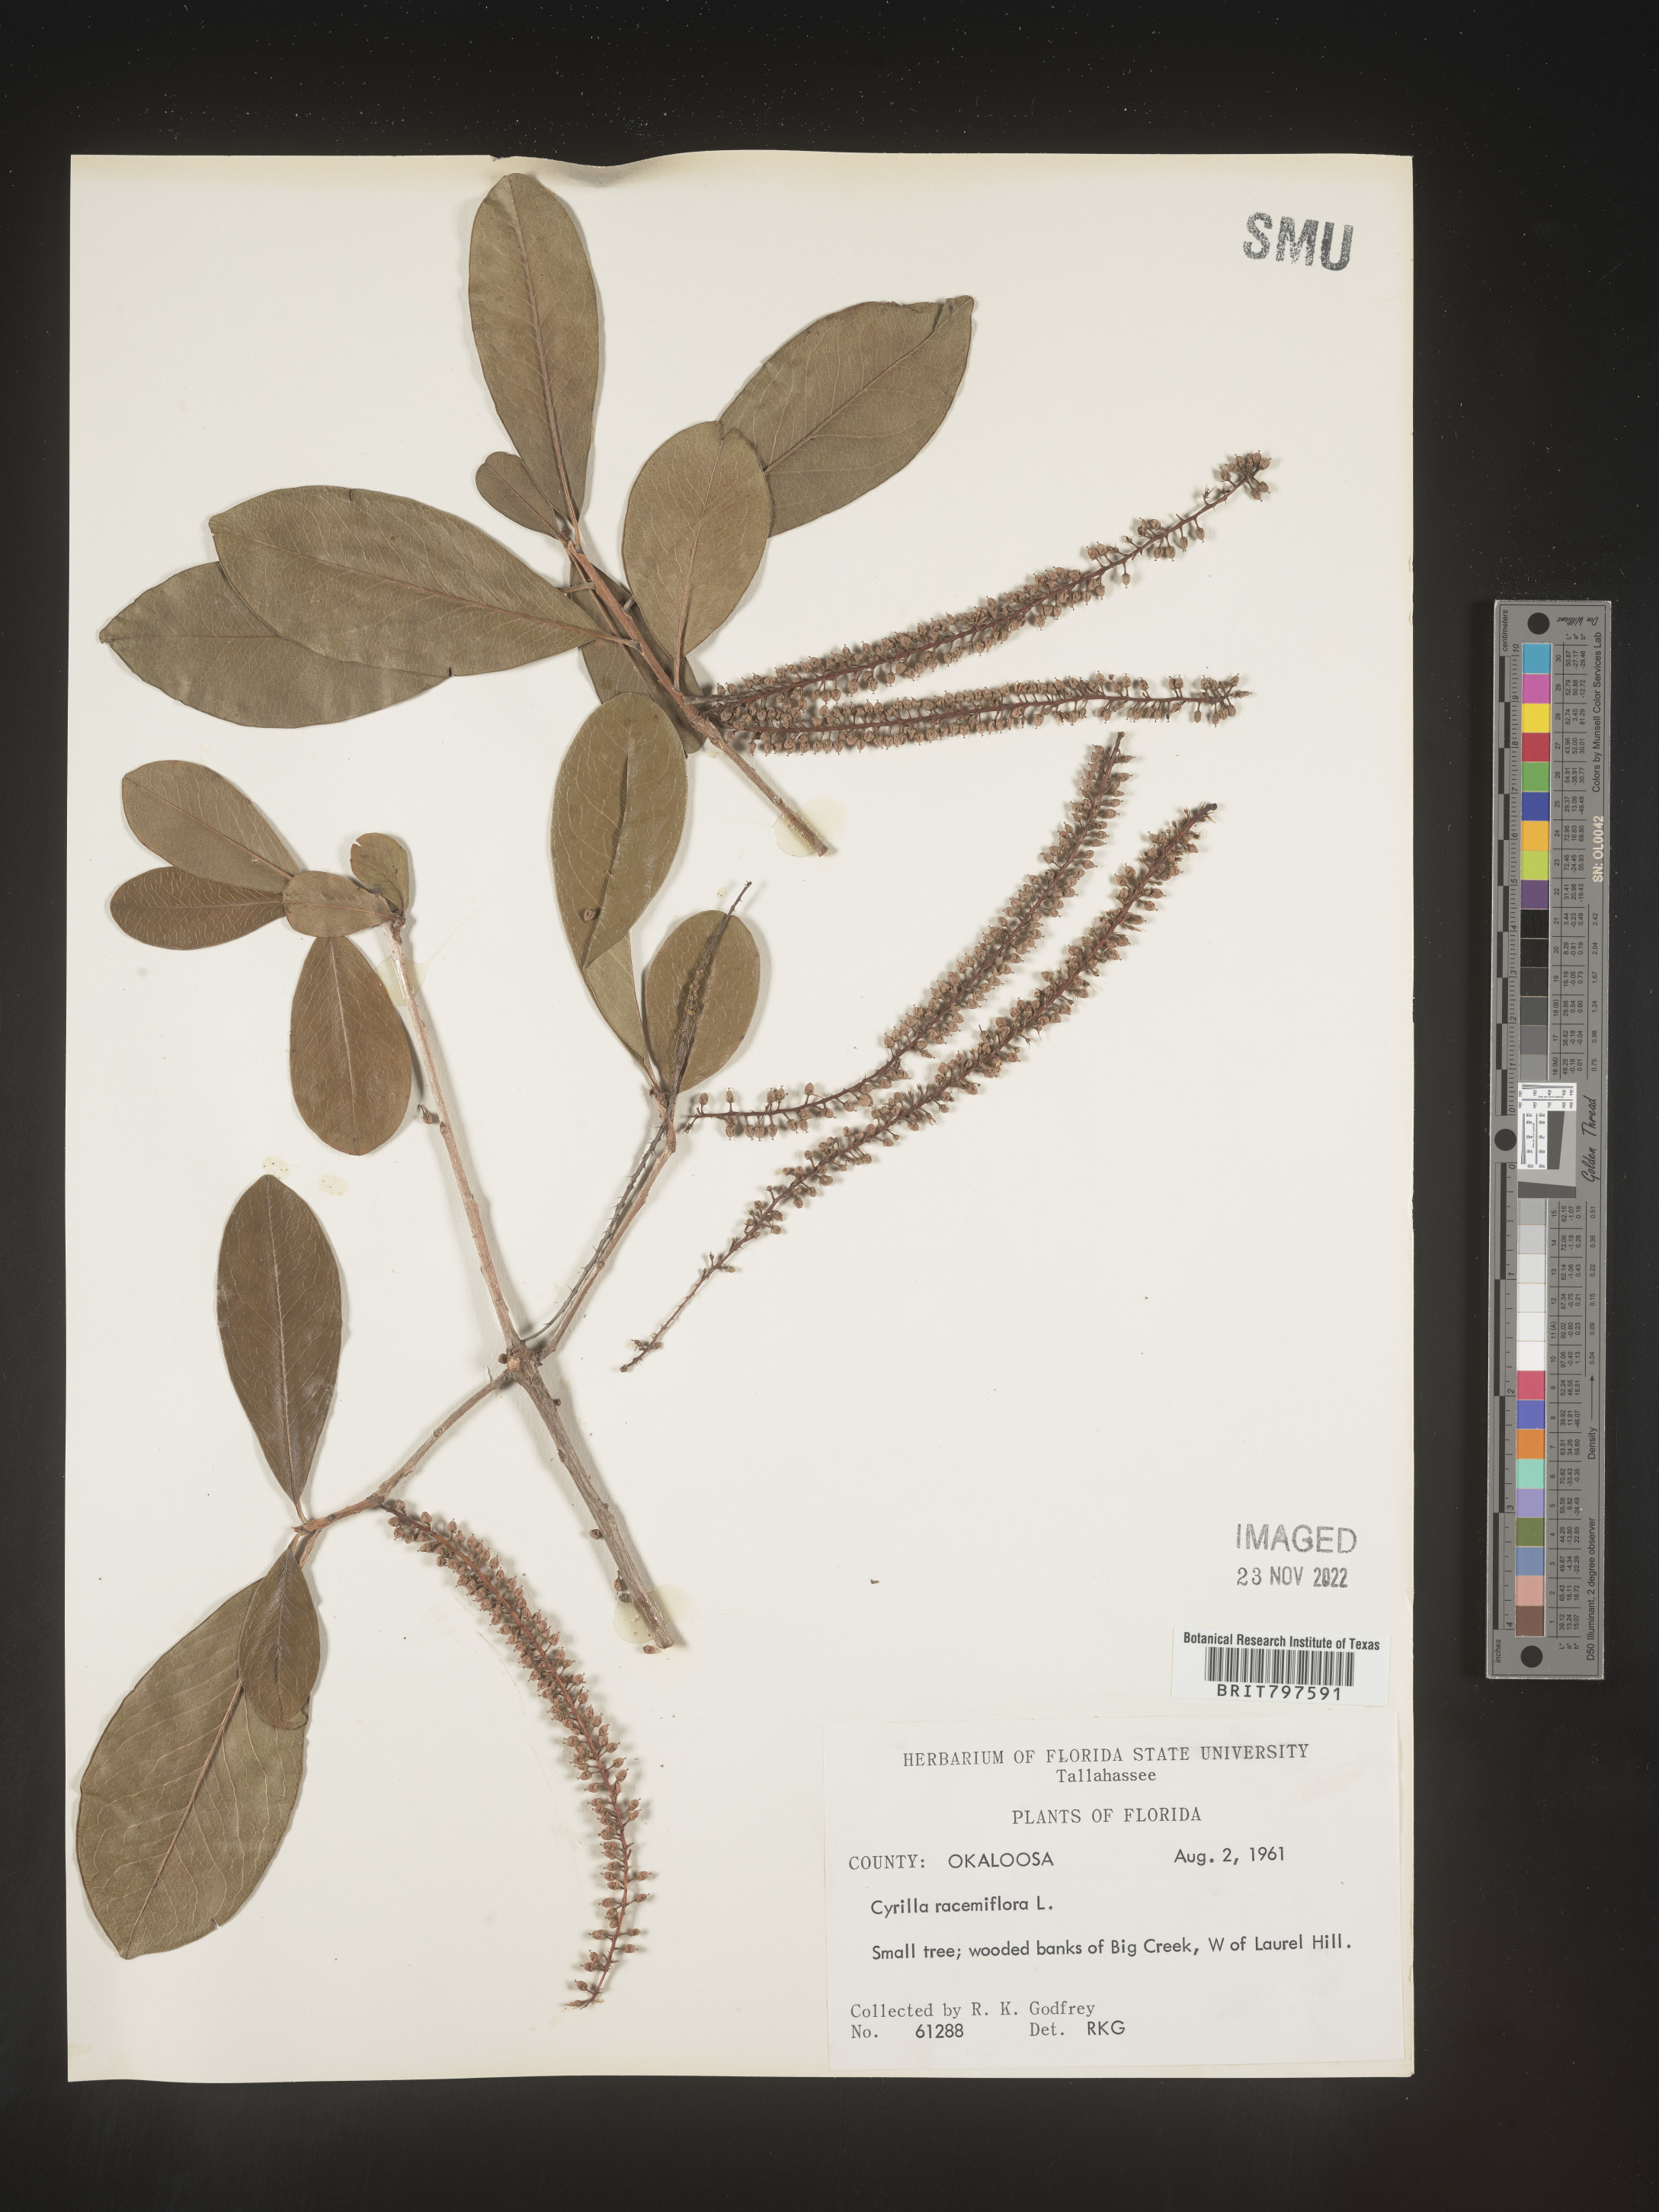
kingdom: Plantae
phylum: Tracheophyta
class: Magnoliopsida
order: Ericales
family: Cyrillaceae
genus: Cyrilla
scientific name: Cyrilla racemiflora
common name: Black titi
